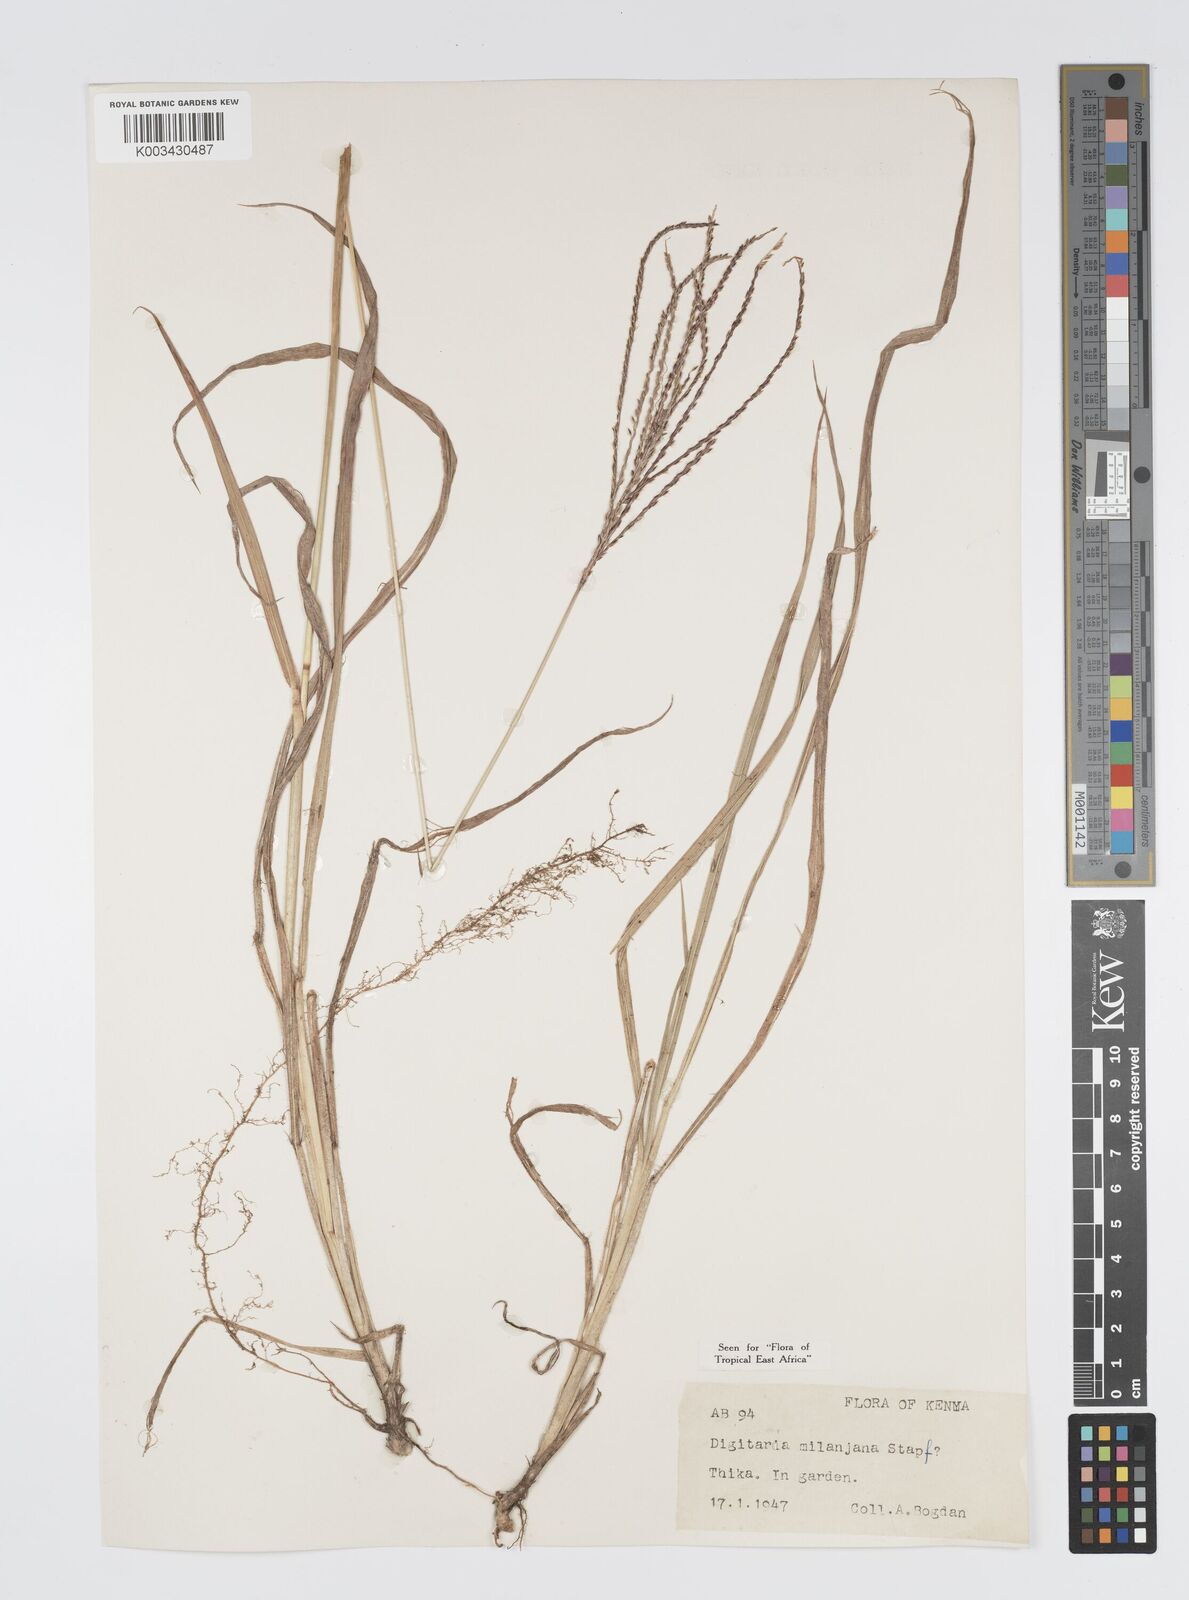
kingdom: Plantae
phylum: Tracheophyta
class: Liliopsida
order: Poales
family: Poaceae
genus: Digitaria
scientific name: Digitaria milanjiana
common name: Madagascar crabgrass
